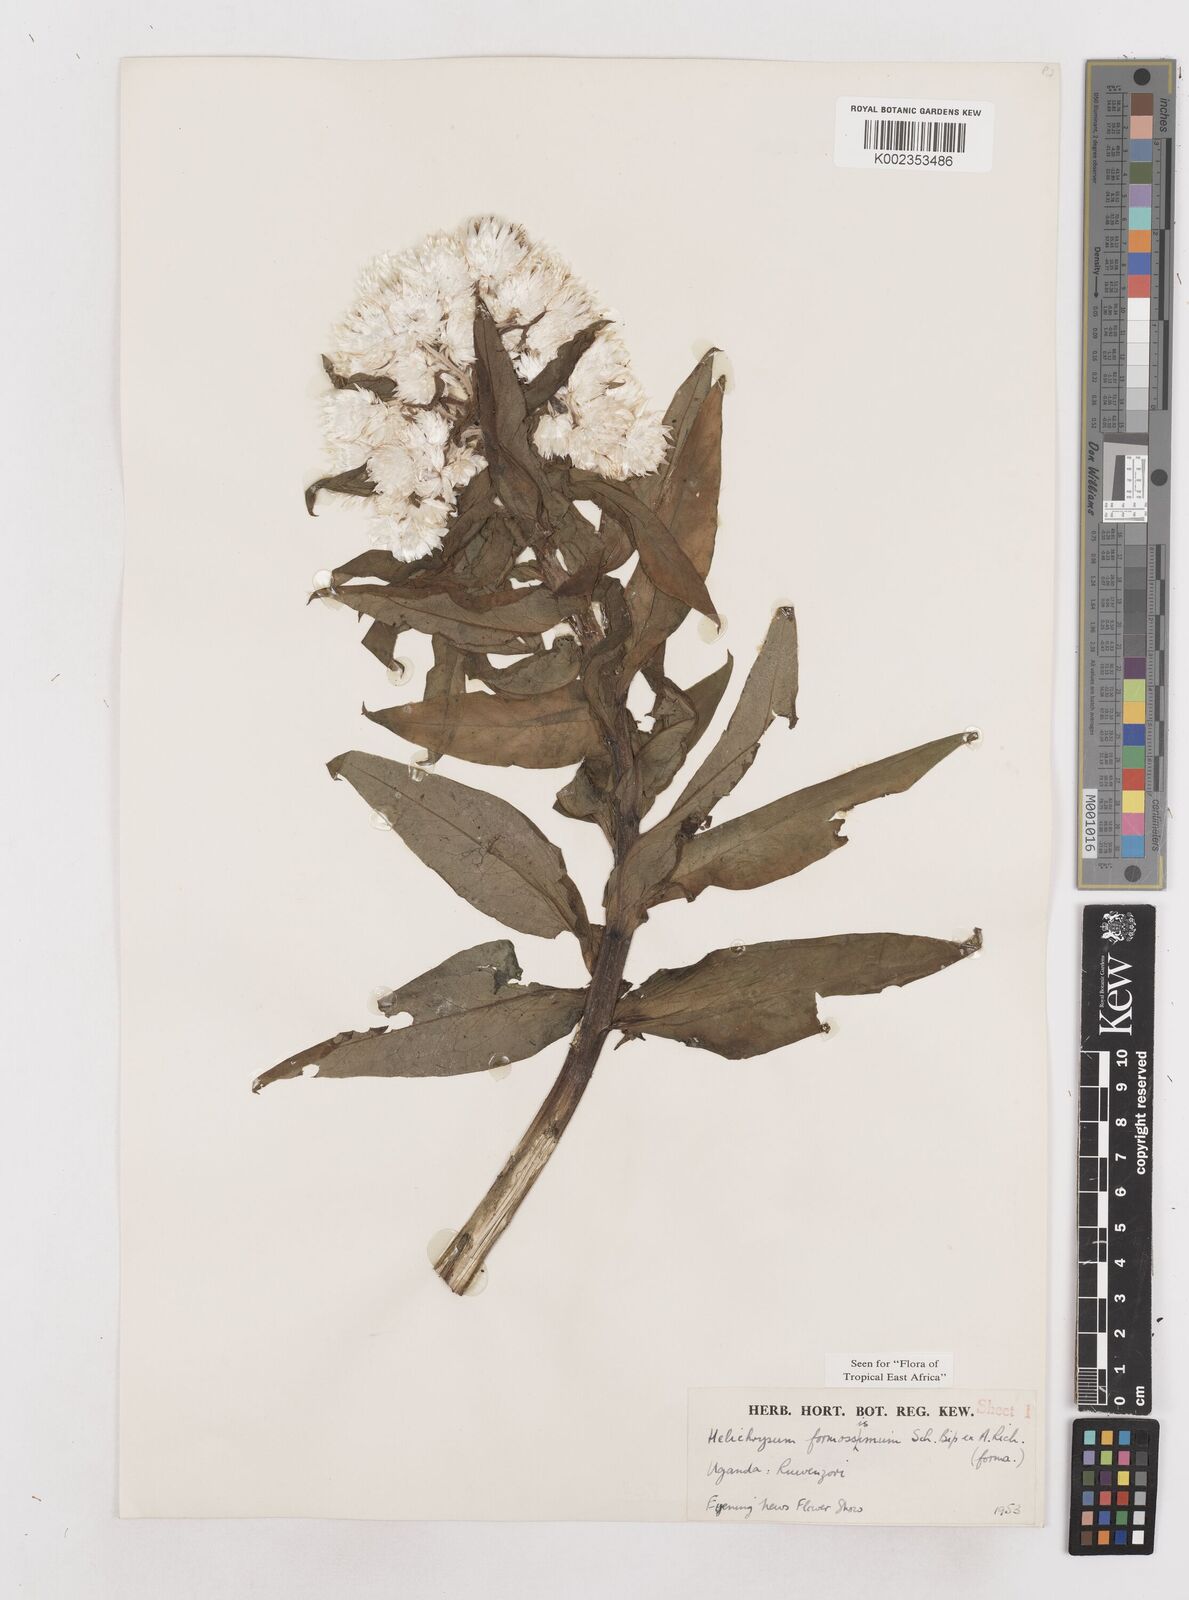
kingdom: Plantae
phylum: Tracheophyta
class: Magnoliopsida
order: Asterales
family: Asteraceae
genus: Helichrysum
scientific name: Helichrysum formosissimum
